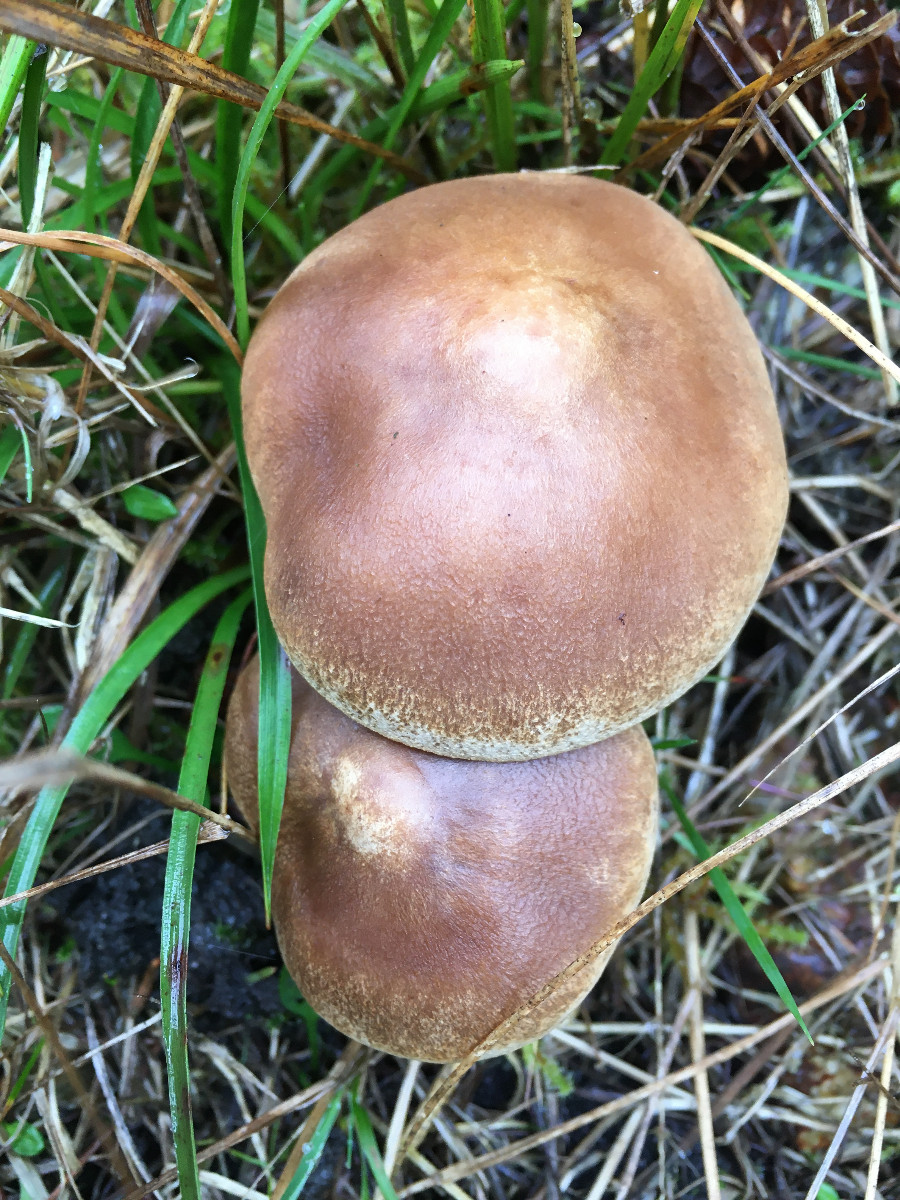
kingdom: Fungi
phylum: Basidiomycota
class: Agaricomycetes
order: Agaricales
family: Tricholomataceae
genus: Tricholoma
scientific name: Tricholoma
